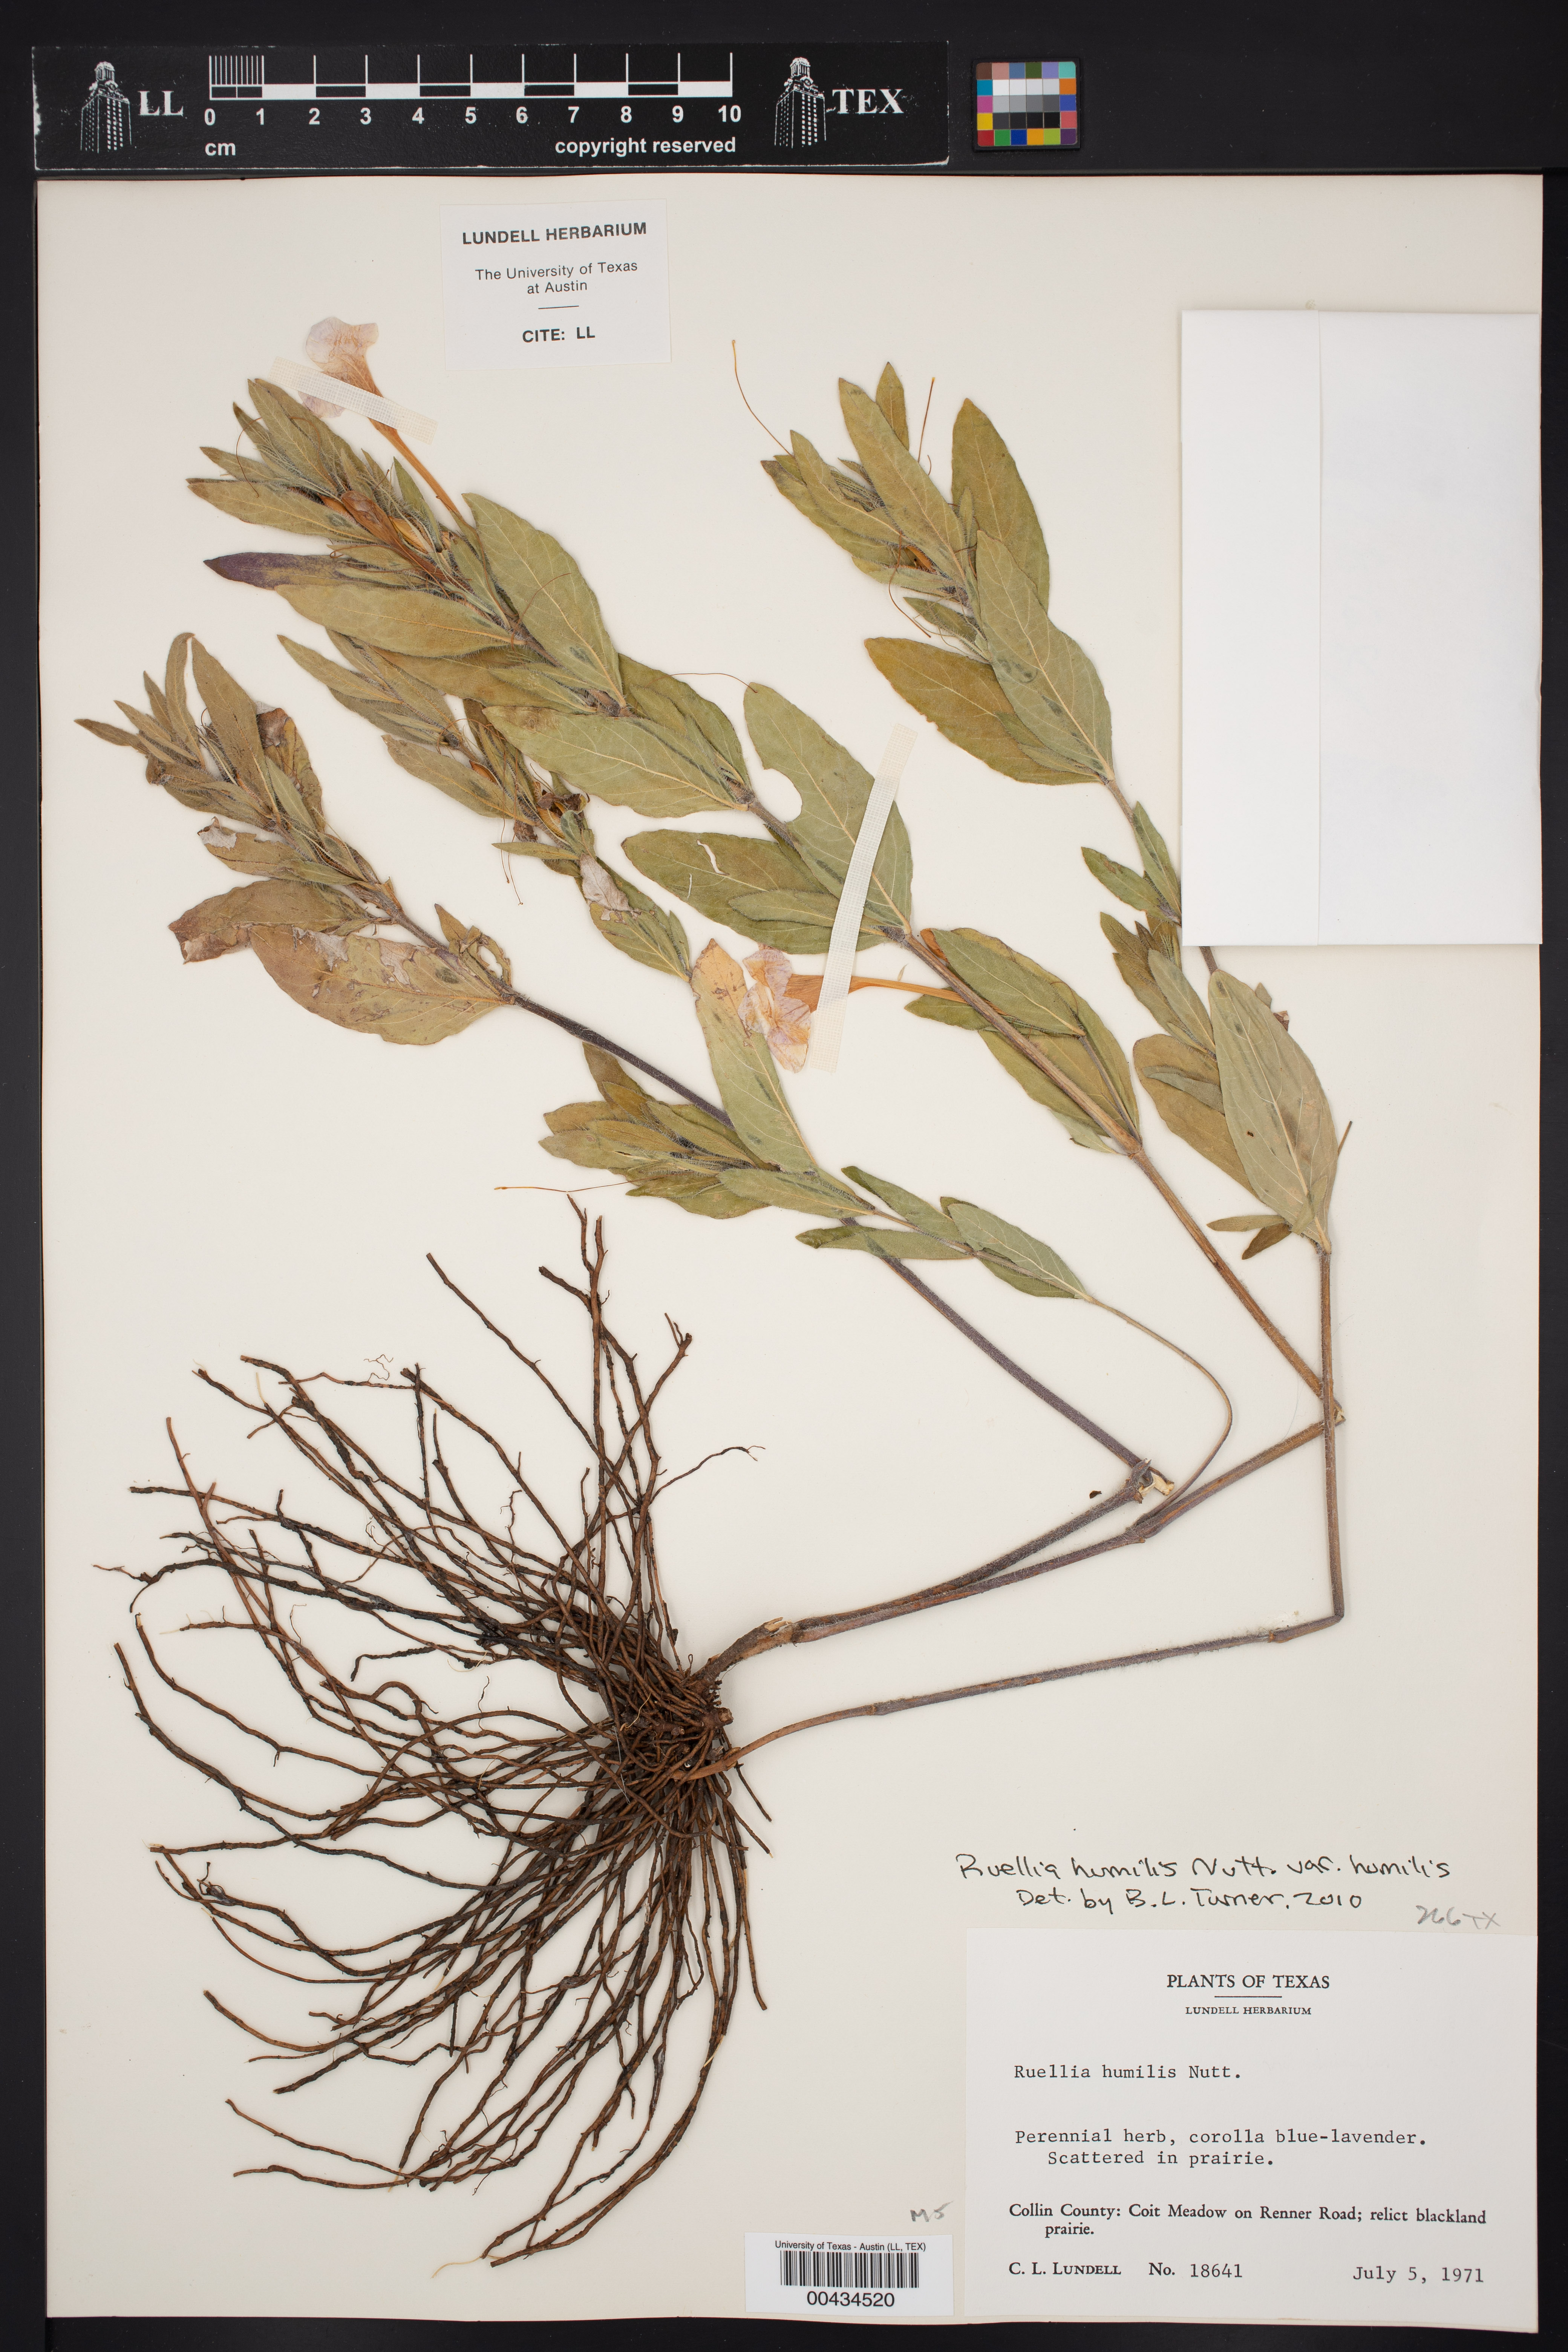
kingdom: Plantae
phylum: Tracheophyta
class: Magnoliopsida
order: Lamiales
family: Acanthaceae
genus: Ruellia
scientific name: Ruellia humilis
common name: Fringe-leaf ruellia
